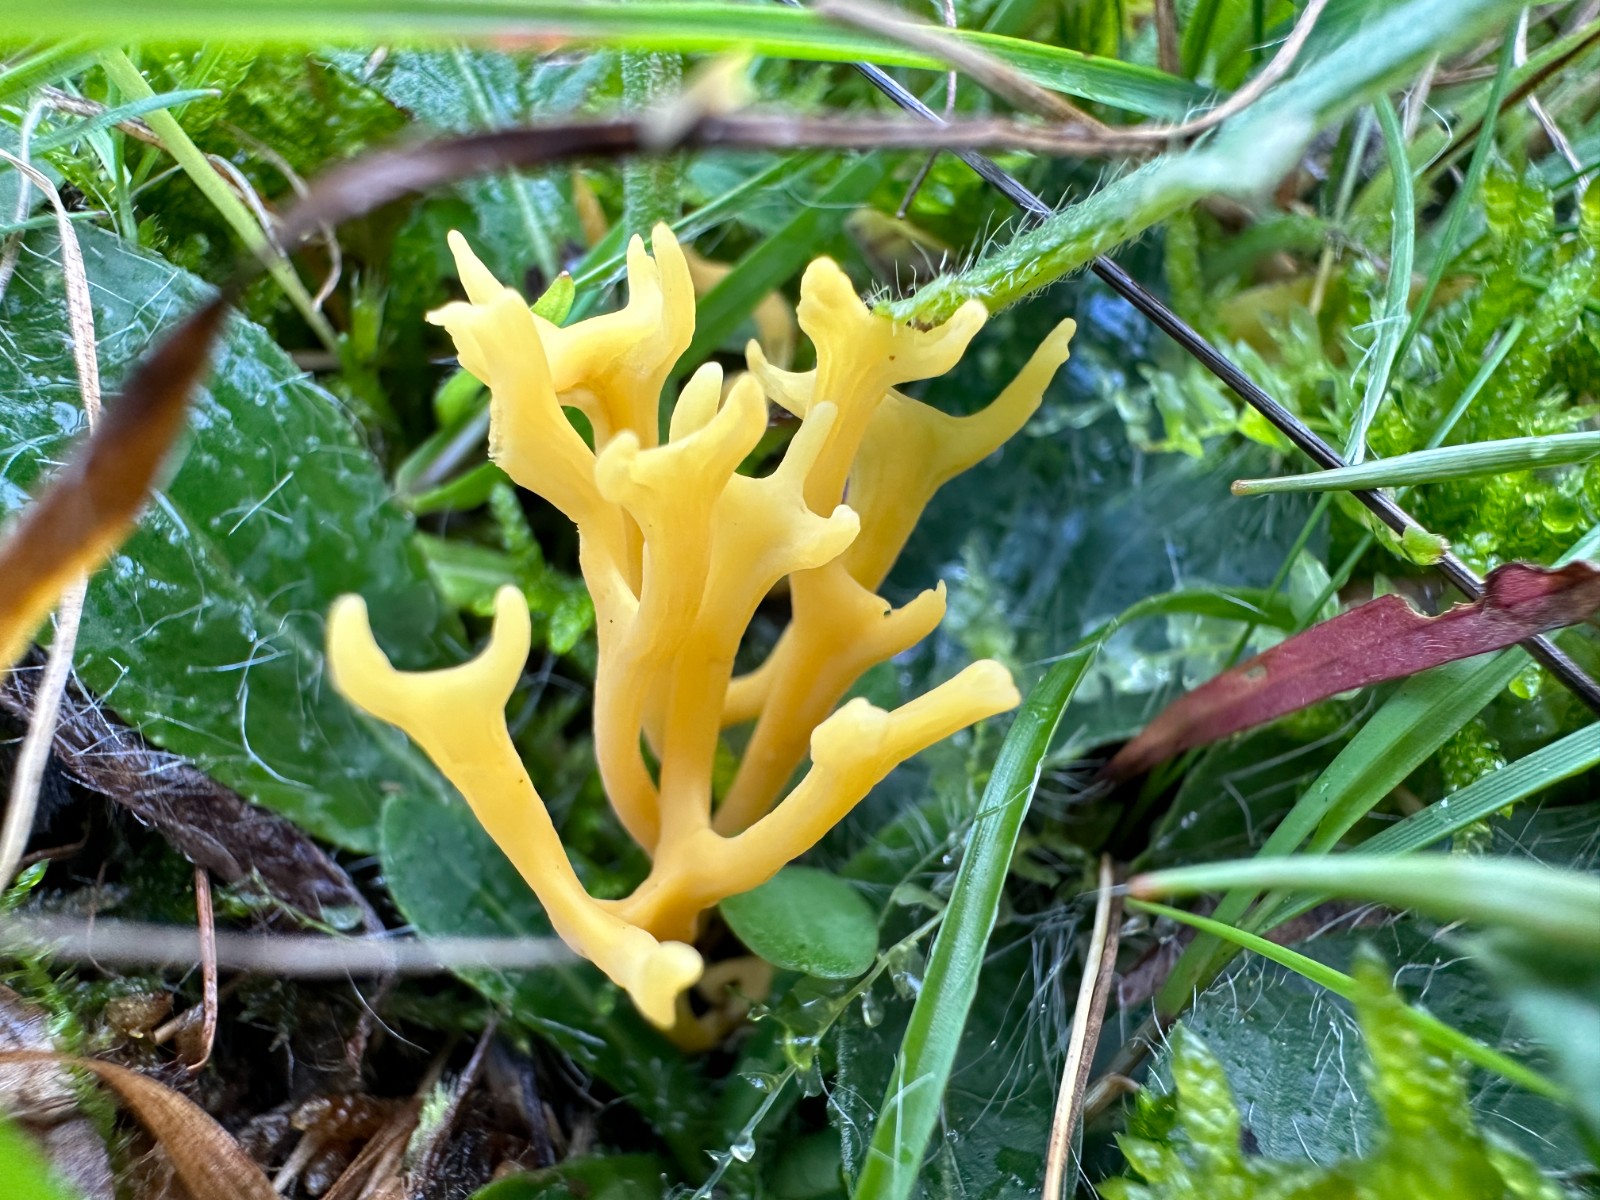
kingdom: Fungi
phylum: Basidiomycota
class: Agaricomycetes
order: Agaricales
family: Clavariaceae
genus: Clavulinopsis
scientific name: Clavulinopsis corniculata
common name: eng-køllesvamp
